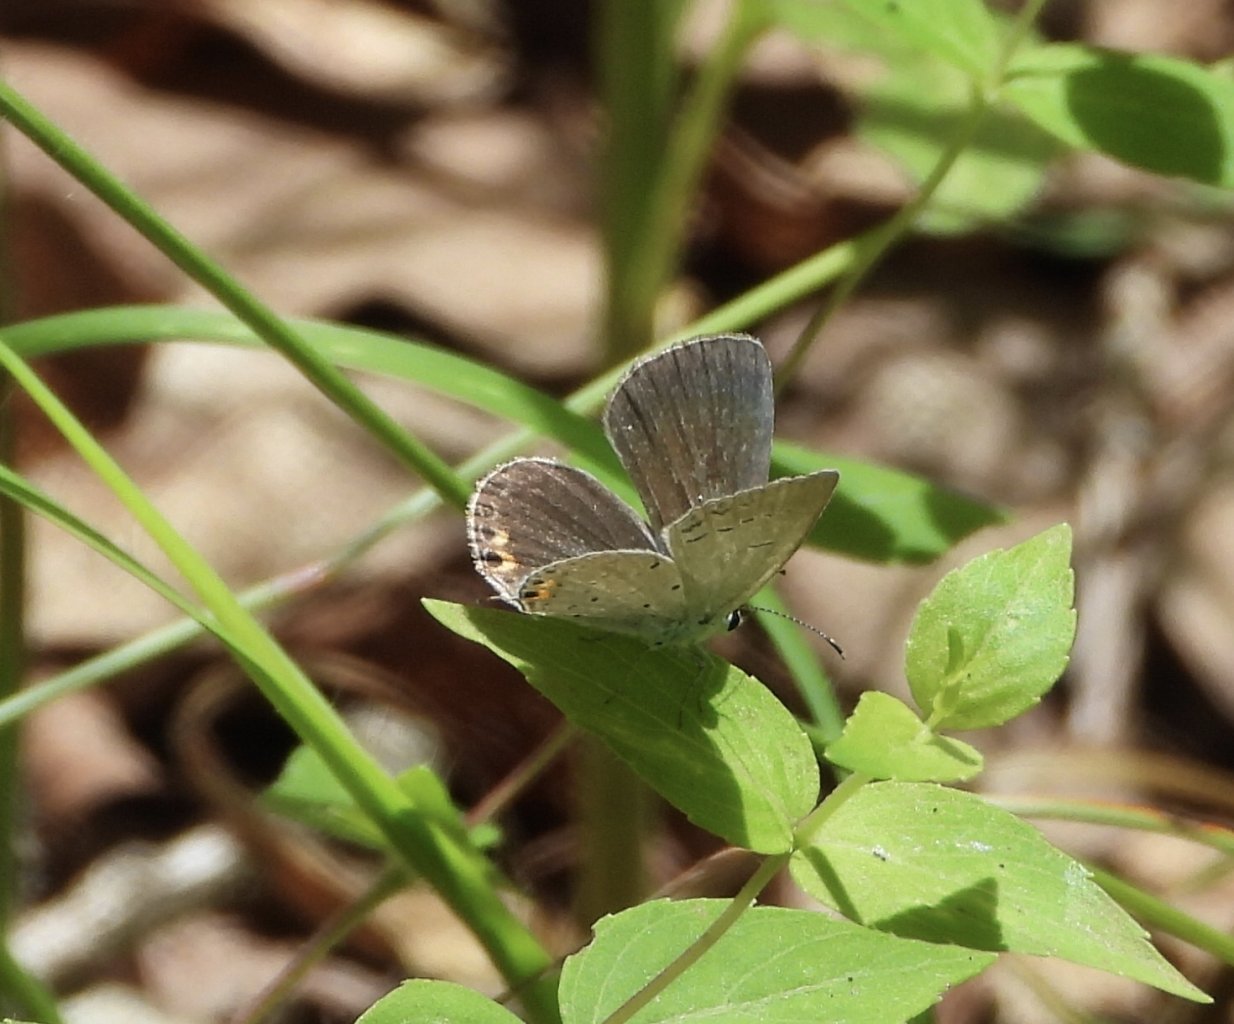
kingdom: Animalia
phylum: Arthropoda
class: Insecta
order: Lepidoptera
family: Lycaenidae
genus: Elkalyce
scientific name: Elkalyce comyntas
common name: Eastern Tailed-Blue
